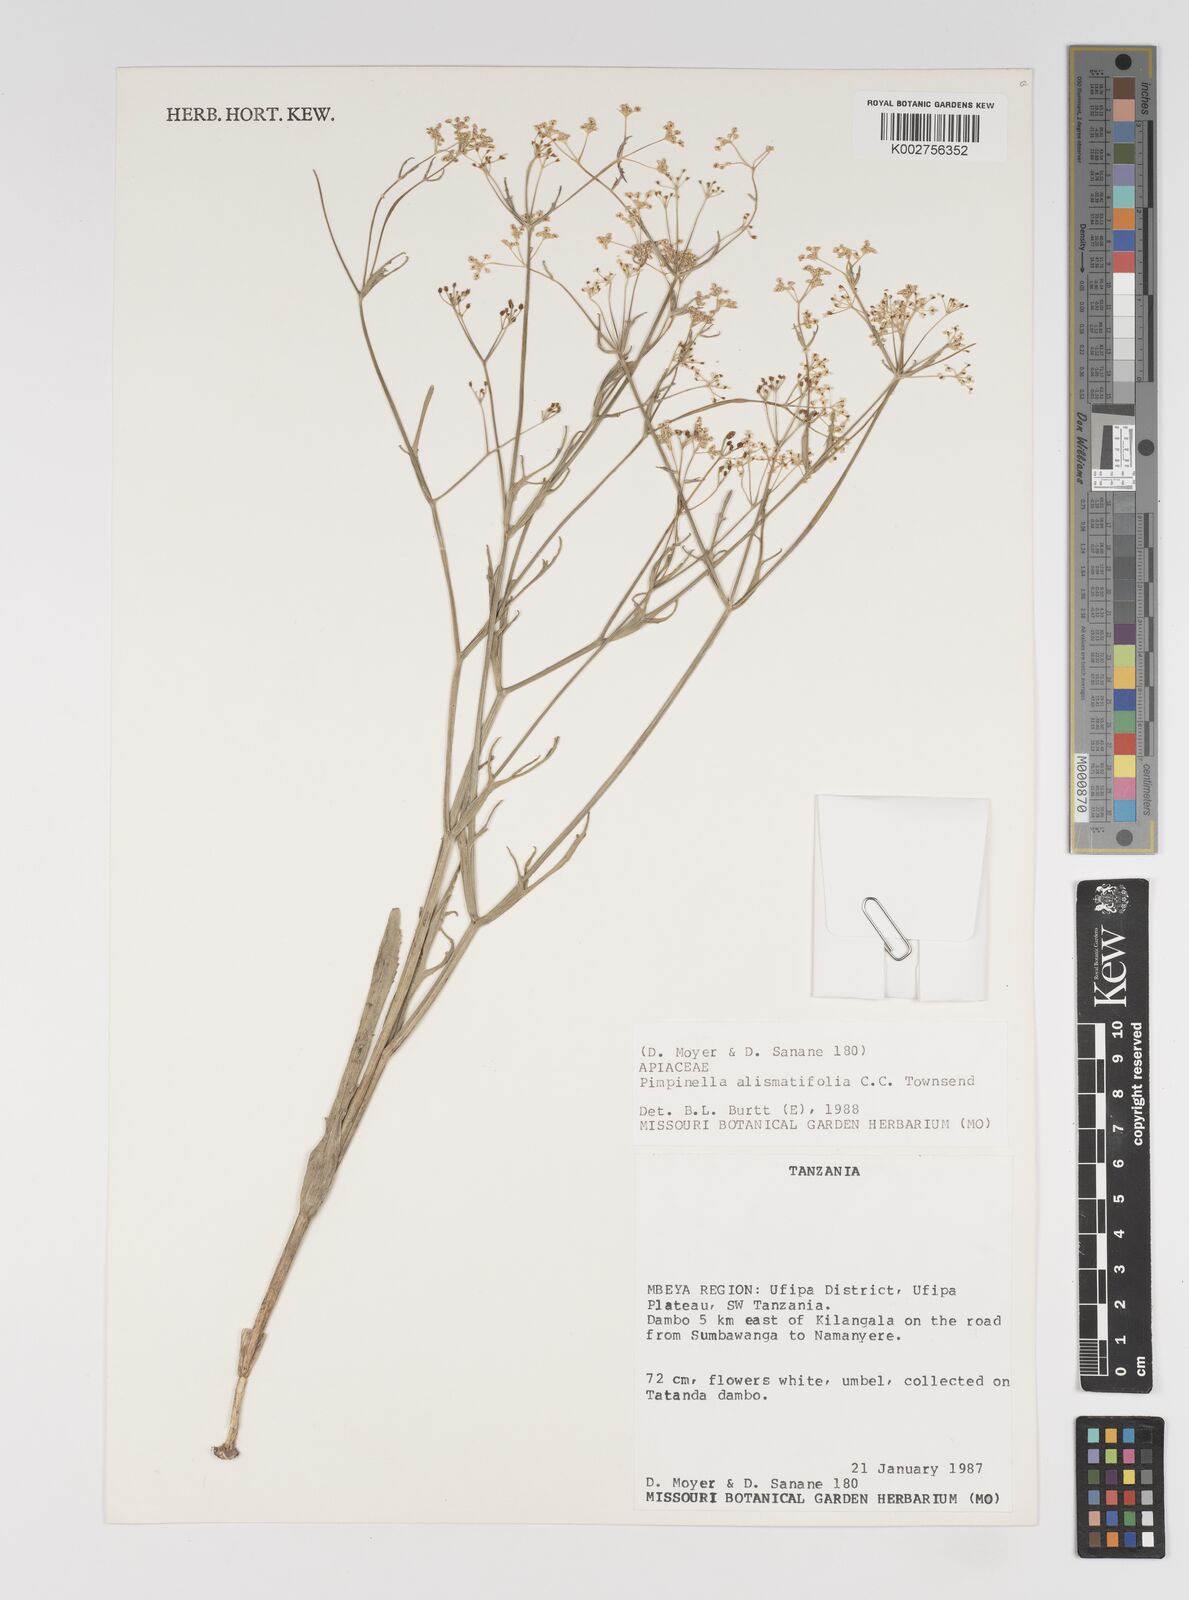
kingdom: Plantae
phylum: Tracheophyta
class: Magnoliopsida
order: Apiales
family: Apiaceae
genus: Pimpinella
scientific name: Pimpinella alismatifolia
